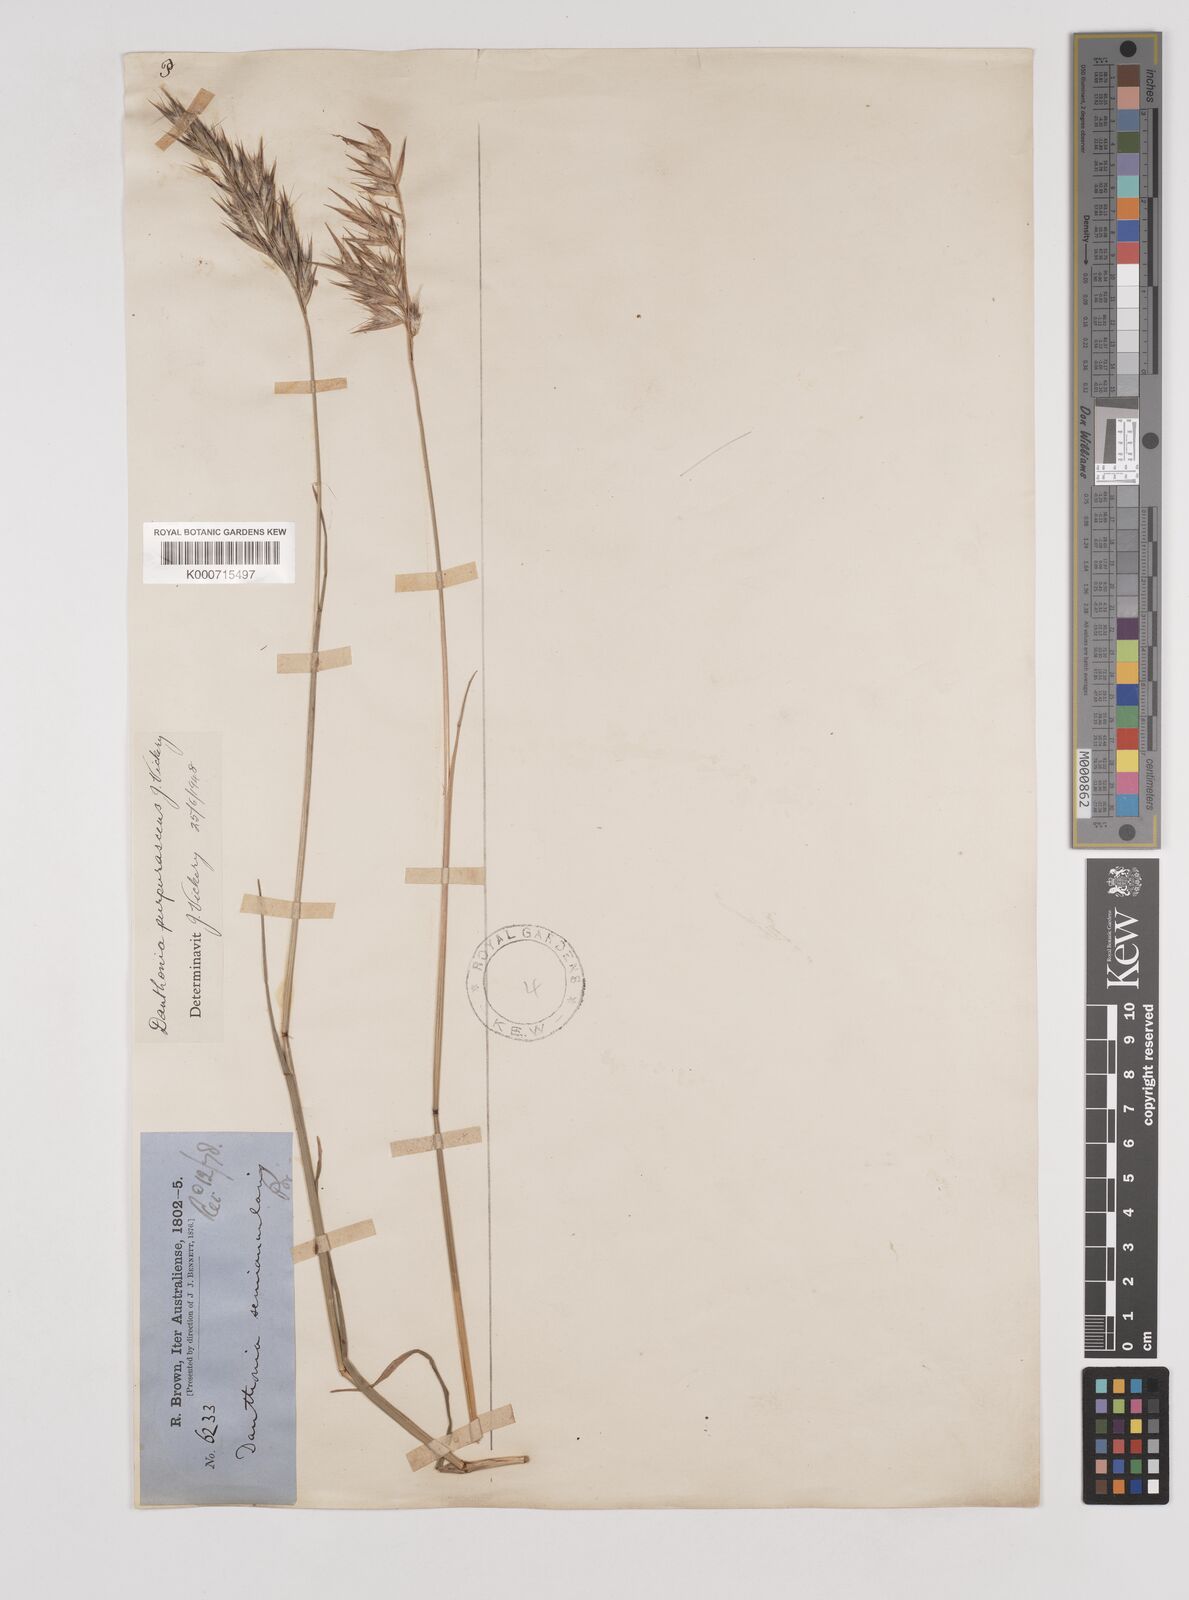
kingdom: Plantae
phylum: Tracheophyta
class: Liliopsida
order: Poales
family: Poaceae
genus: Rytidosperma
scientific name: Rytidosperma tenuius
